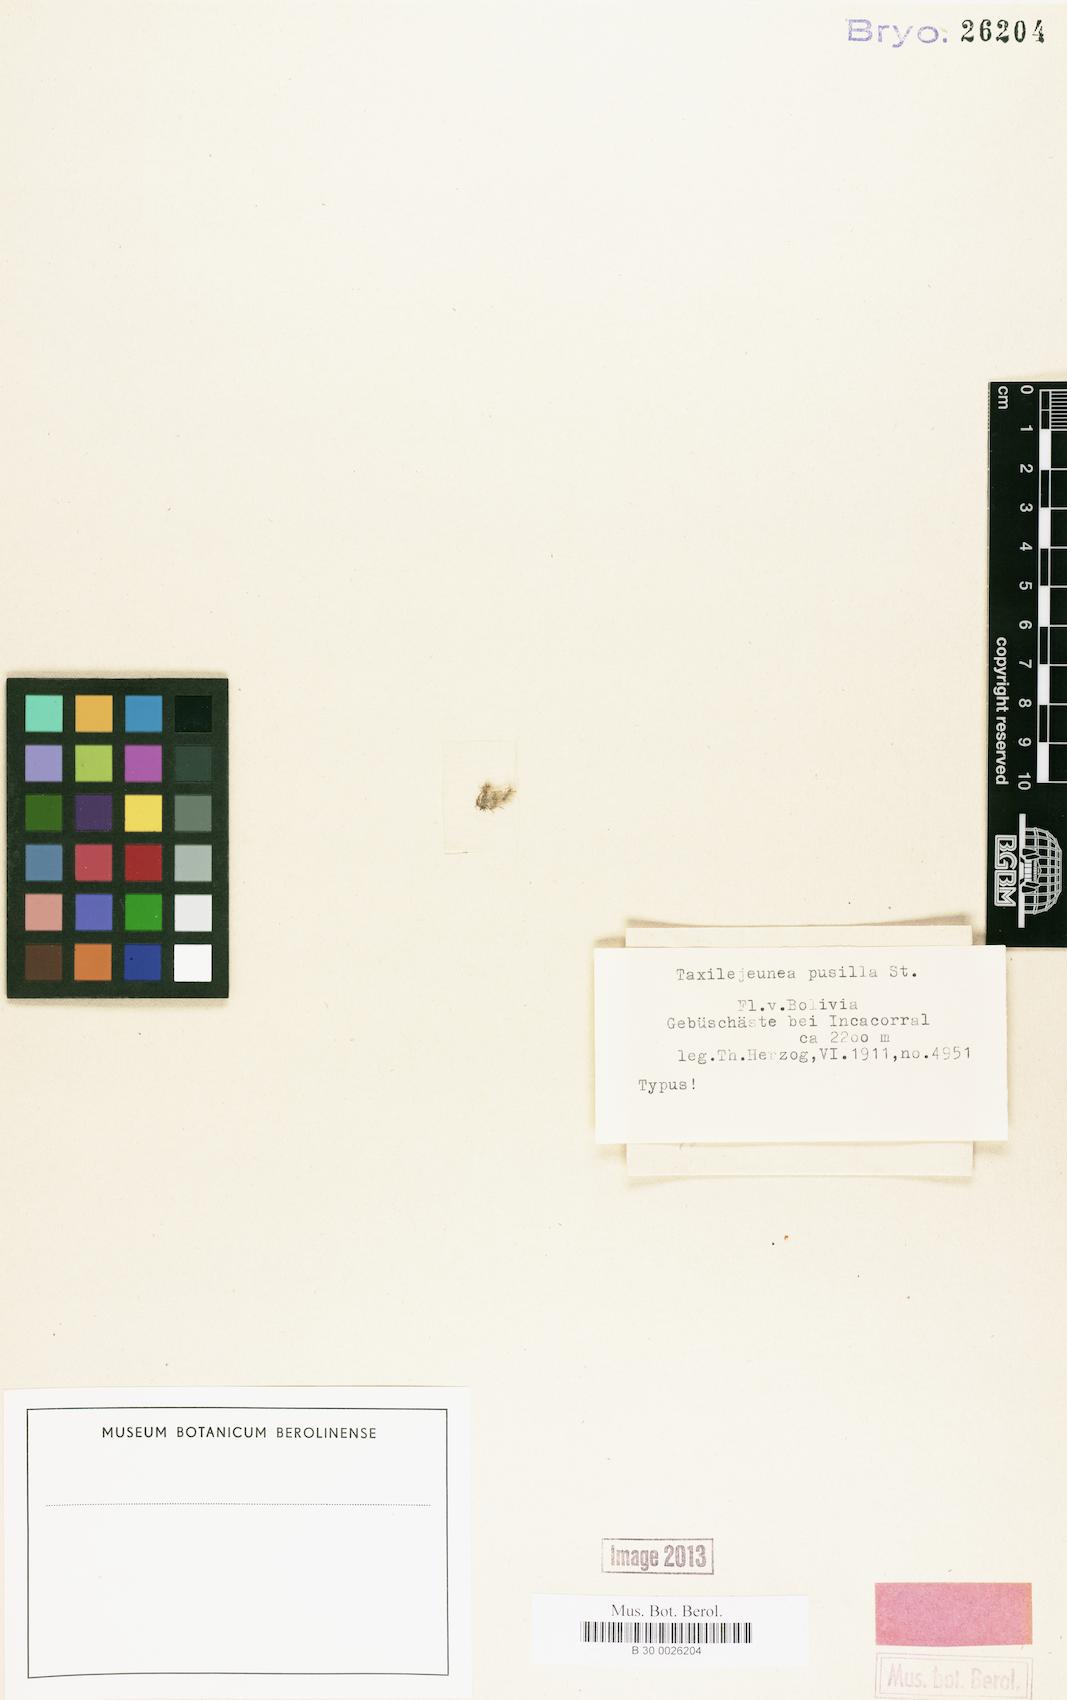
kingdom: Plantae
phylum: Marchantiophyta
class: Jungermanniopsida
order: Porellales
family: Lejeuneaceae
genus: Taxilejeunea
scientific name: Taxilejeunea pusilla
